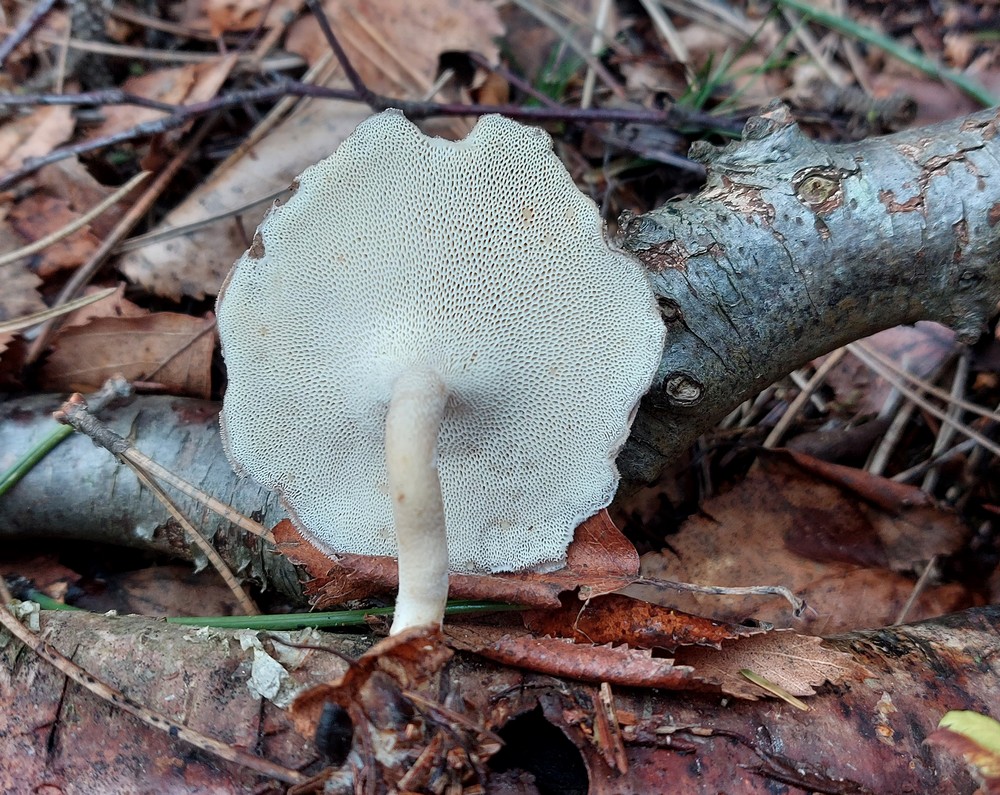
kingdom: Fungi
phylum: Basidiomycota
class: Agaricomycetes
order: Polyporales
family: Polyporaceae
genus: Lentinus
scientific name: Lentinus brumalis
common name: vinter-stilkporesvamp
